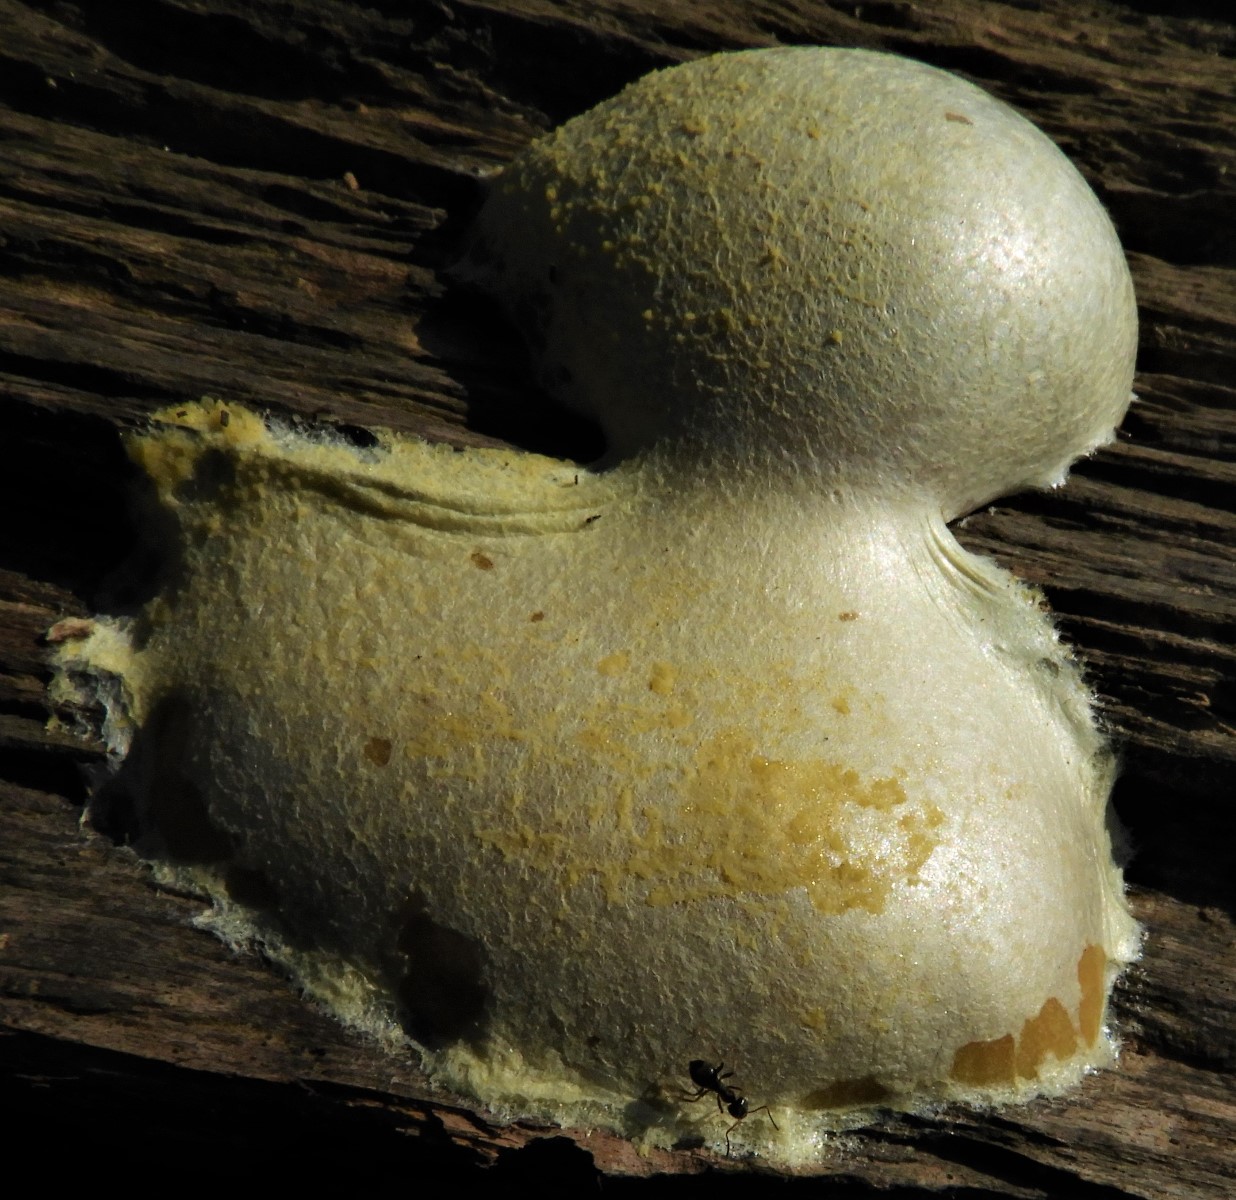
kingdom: Protozoa
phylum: Mycetozoa
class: Myxomycetes
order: Cribrariales
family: Tubiferaceae
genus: Reticularia
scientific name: Reticularia lycoperdon
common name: skinnende støvpude
